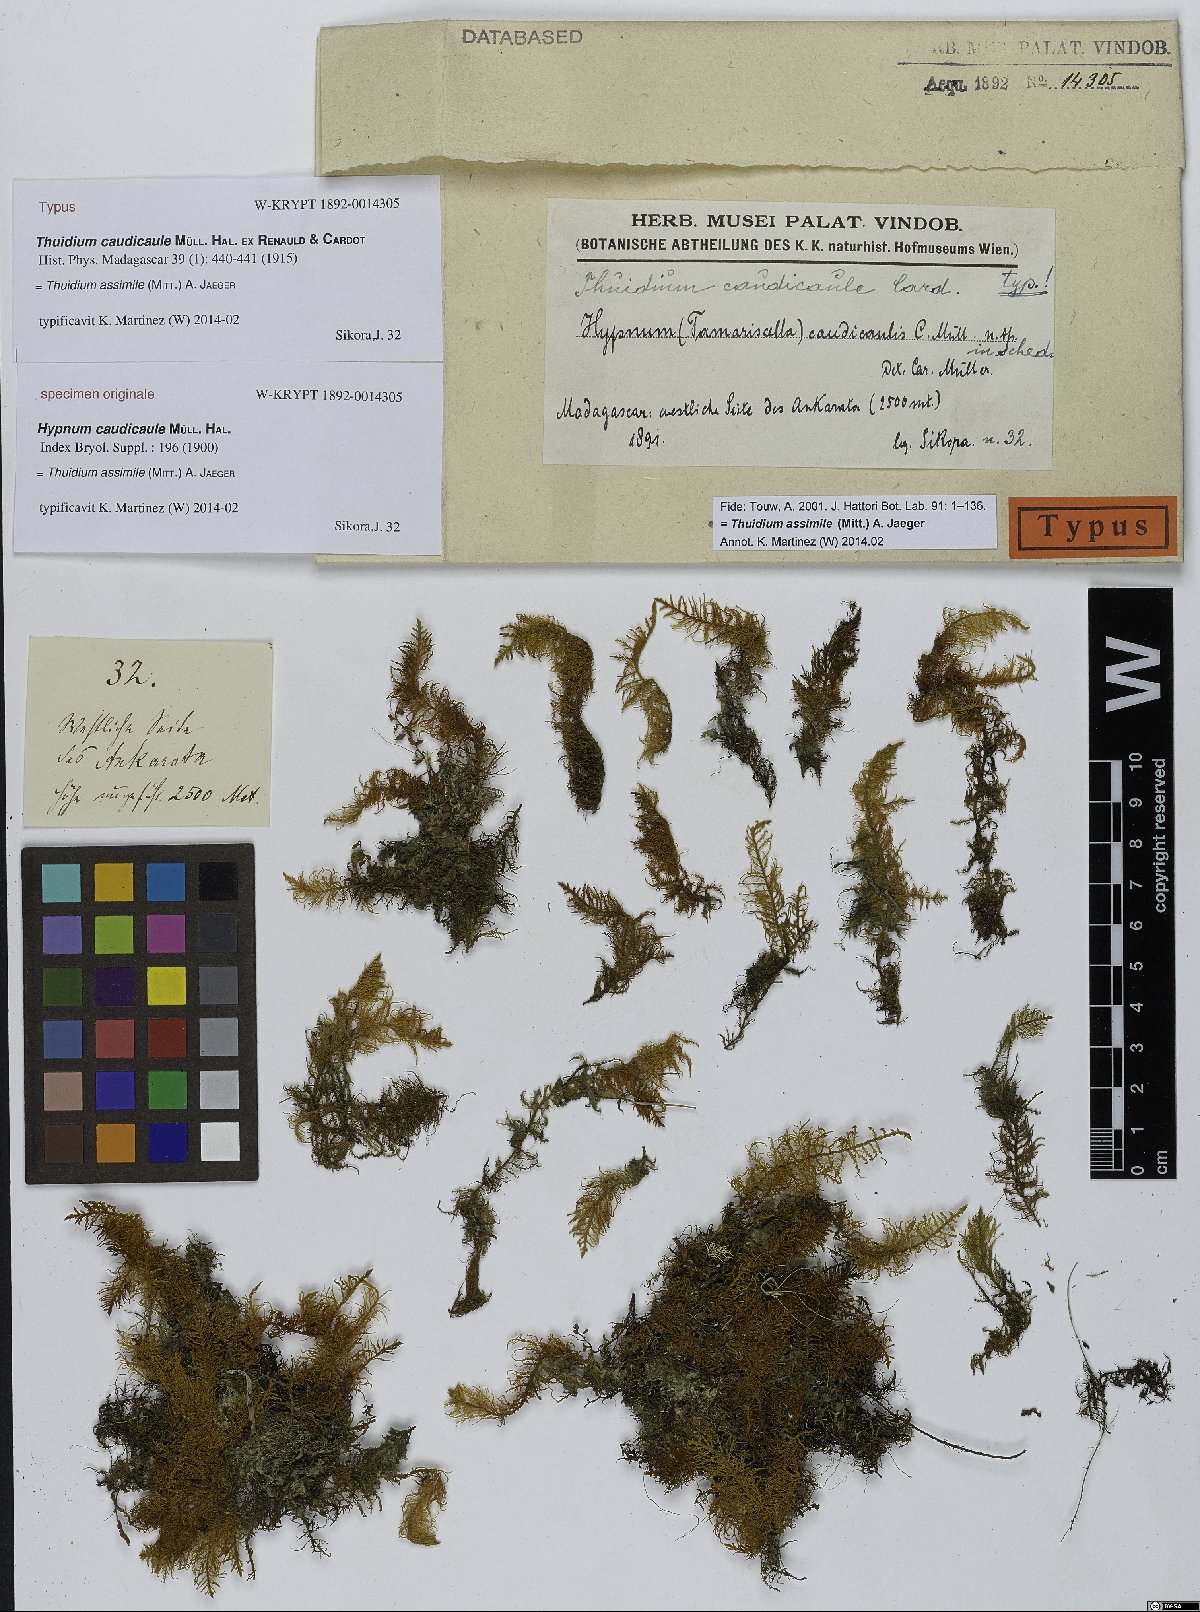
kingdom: Plantae
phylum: Bryophyta
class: Bryopsida
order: Hypnales
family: Thuidiaceae
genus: Thuidium
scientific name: Thuidium assimile
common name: Philibert's fern moss
